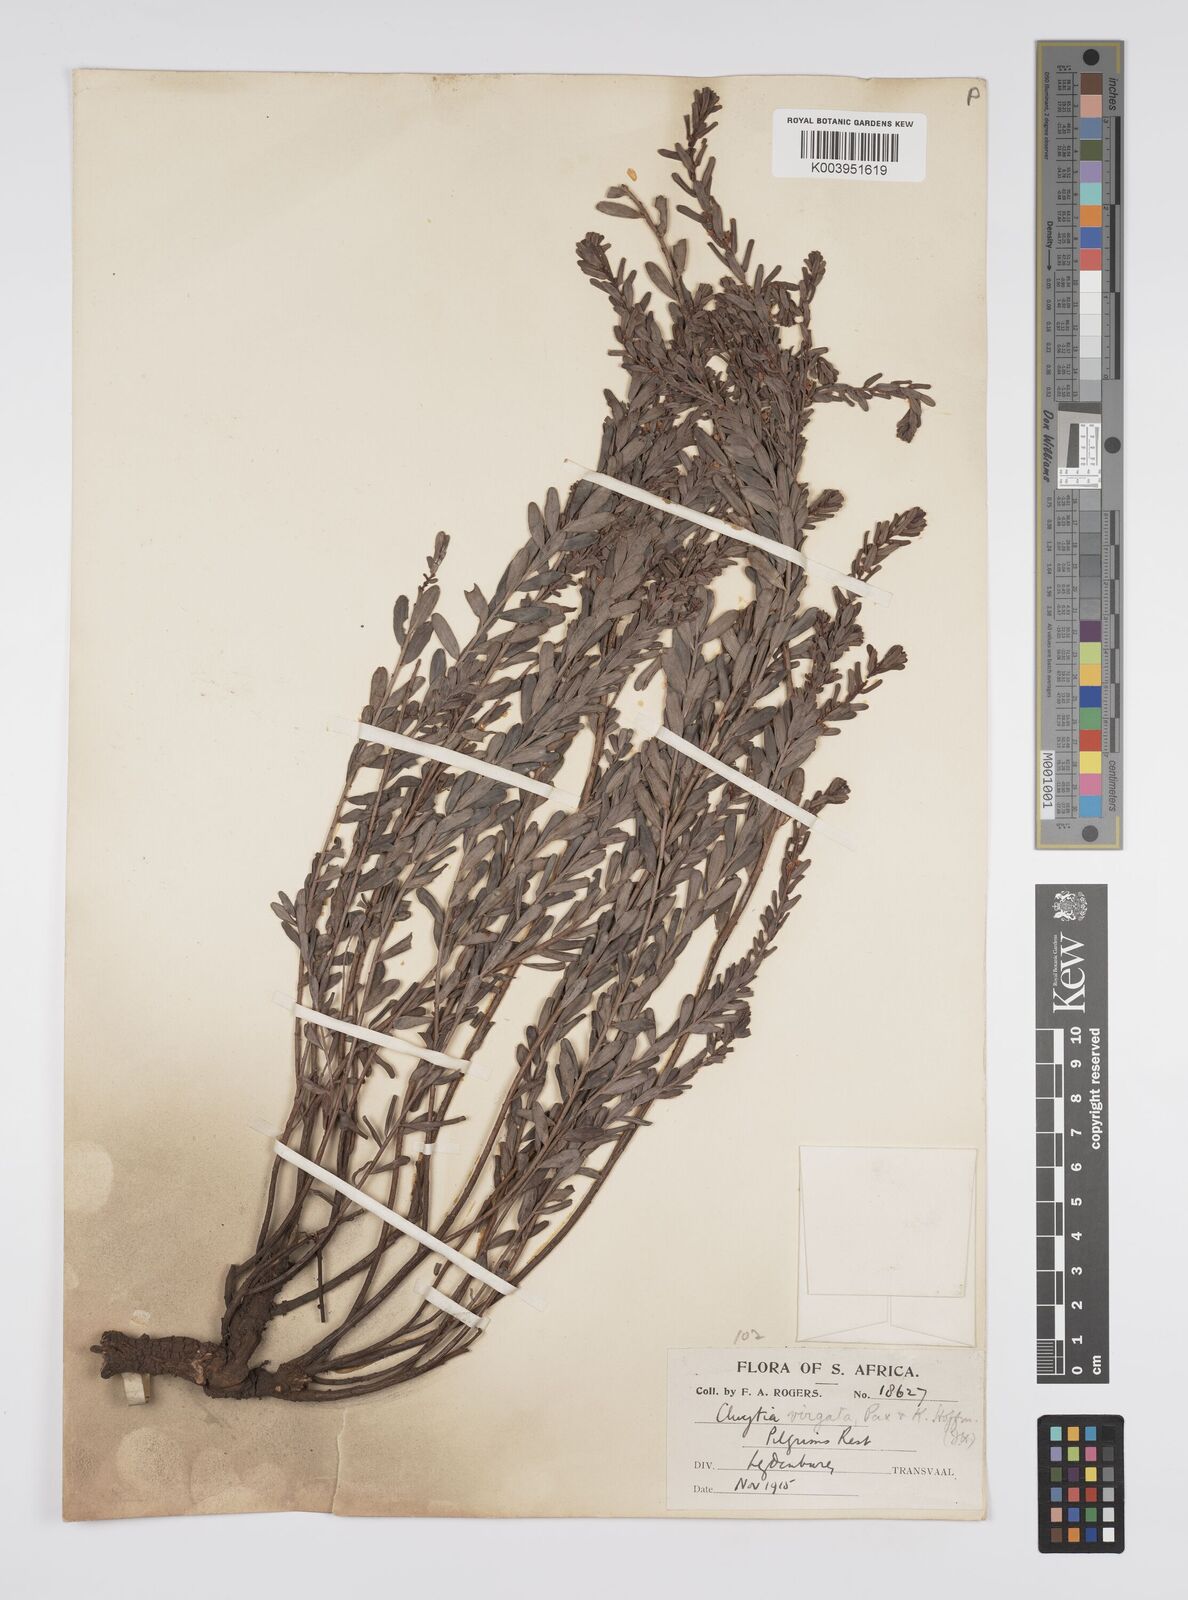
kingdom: Plantae
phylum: Tracheophyta
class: Magnoliopsida
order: Malpighiales
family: Peraceae
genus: Clutia
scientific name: Clutia virgata
